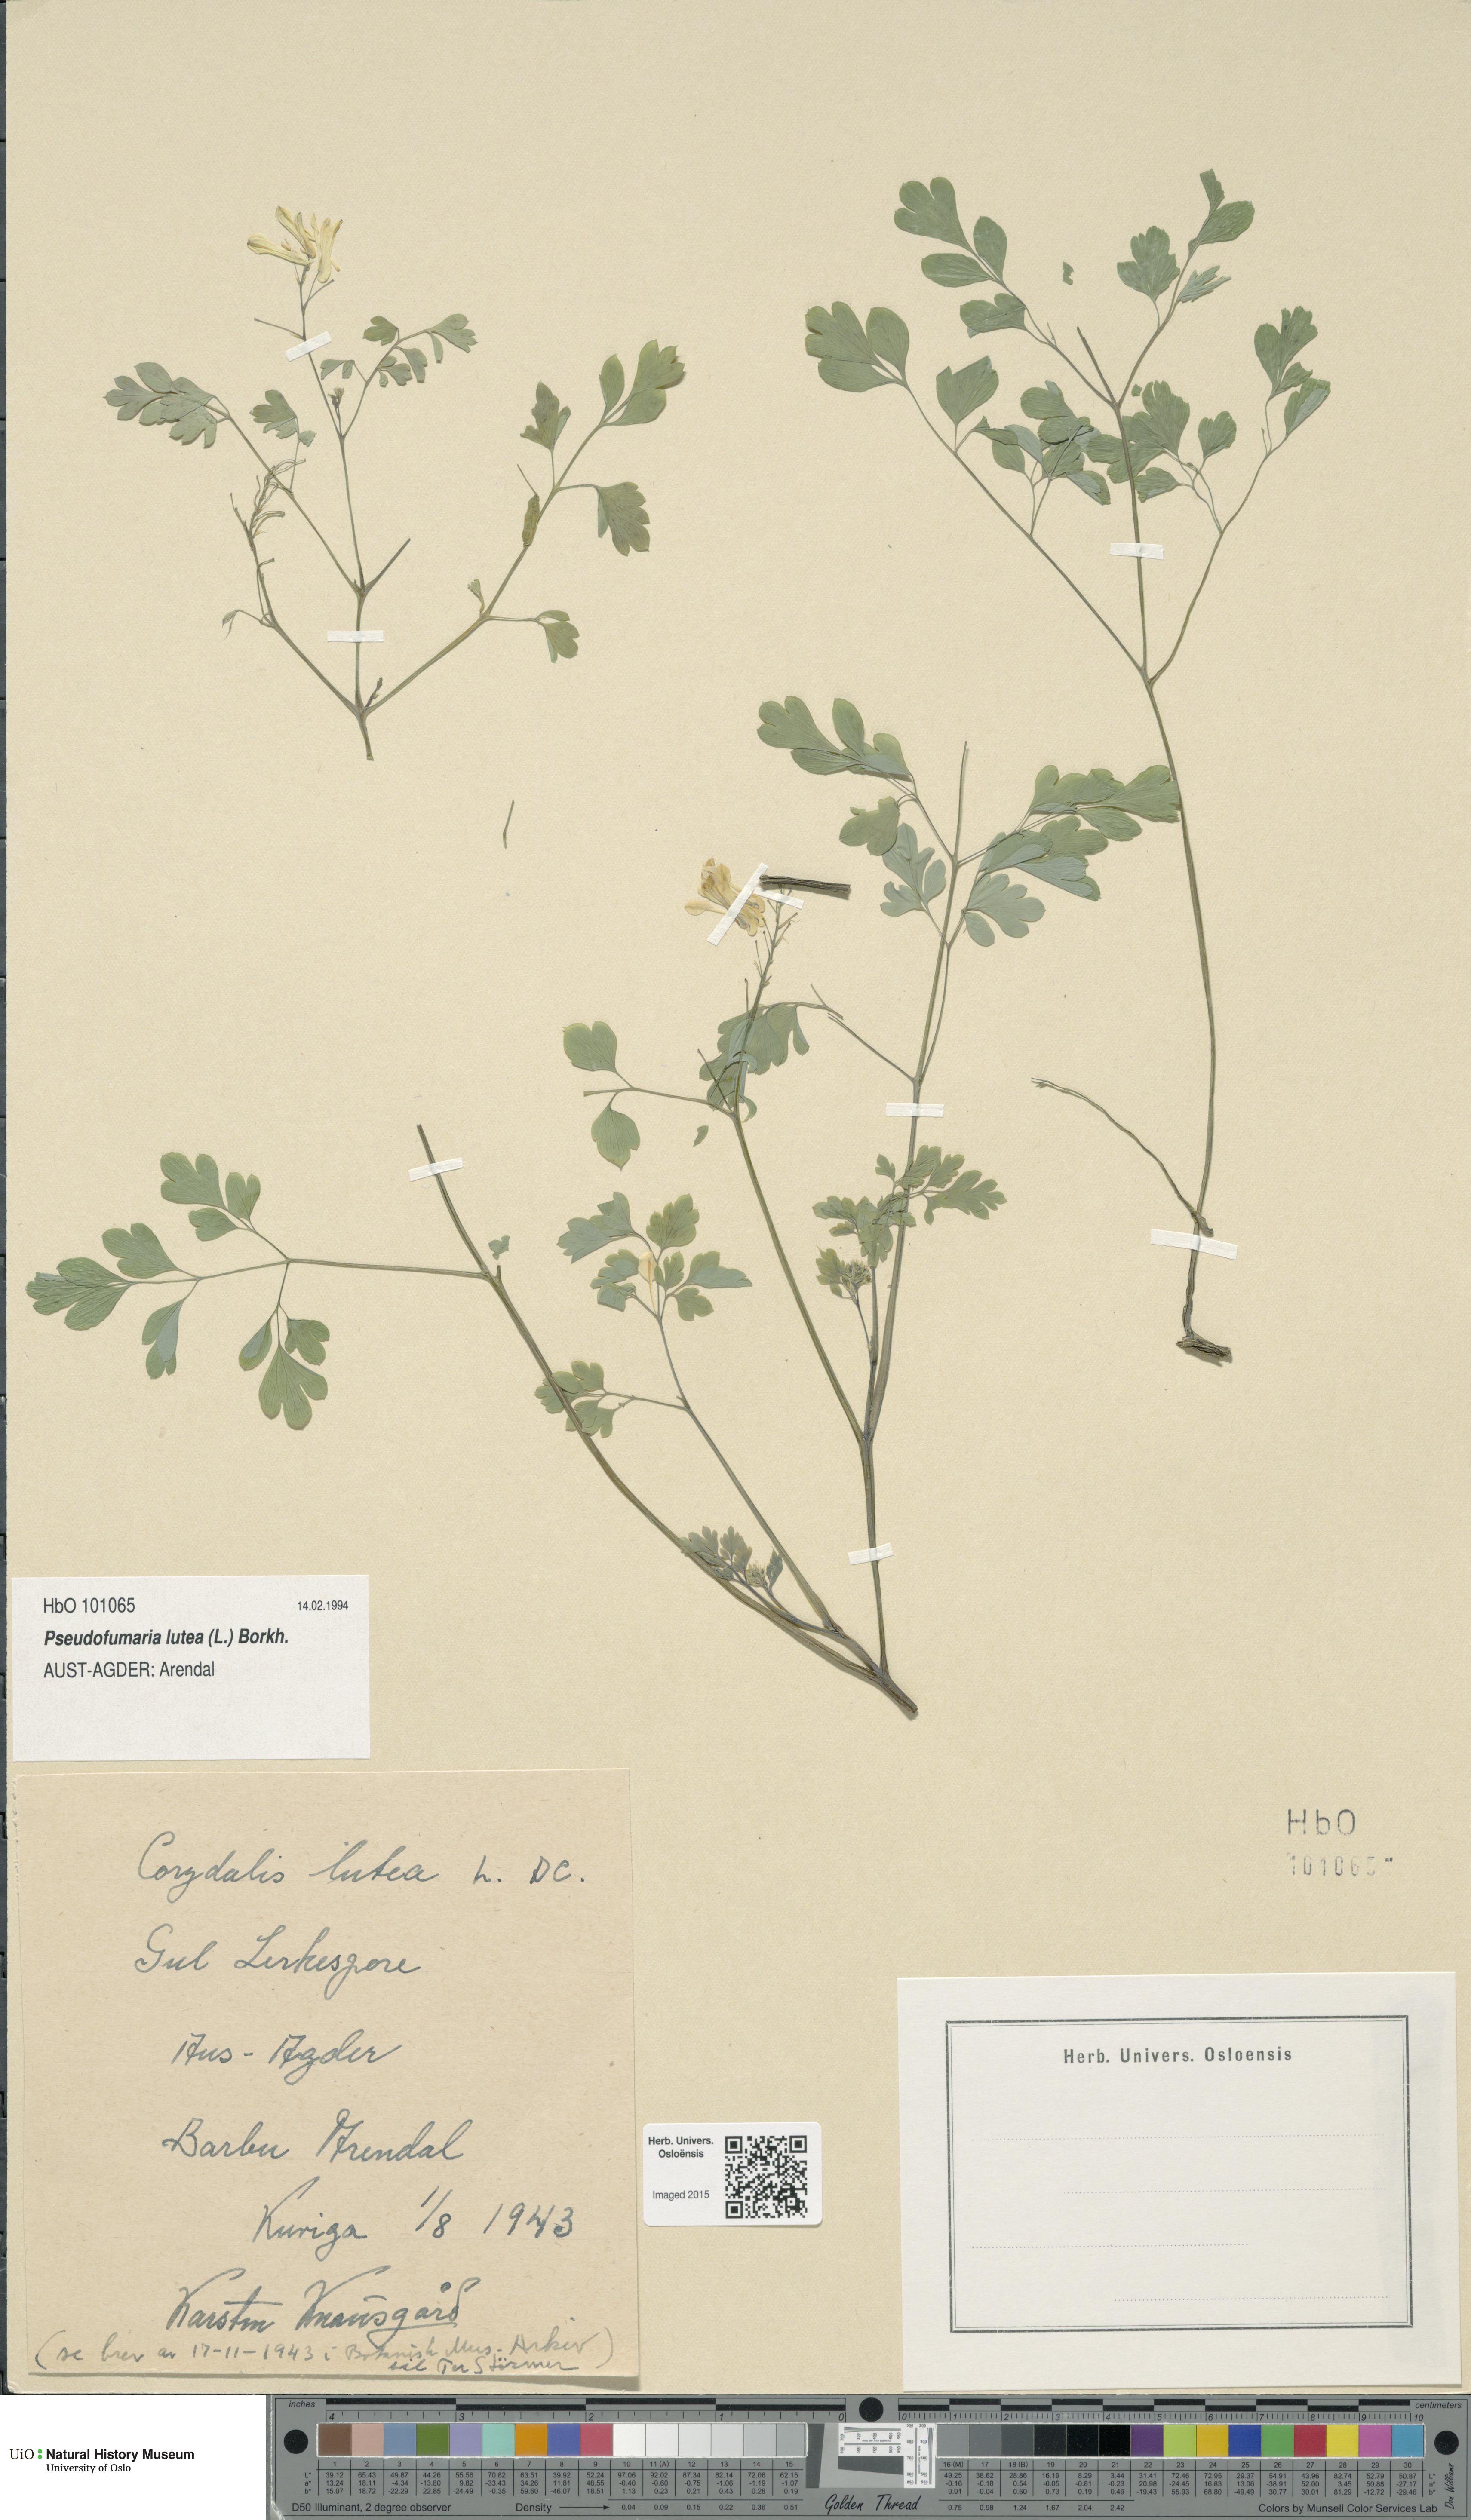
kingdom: Plantae
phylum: Tracheophyta
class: Magnoliopsida
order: Ranunculales
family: Papaveraceae
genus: Pseudofumaria
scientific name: Pseudofumaria lutea
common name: Yellow corydalis
